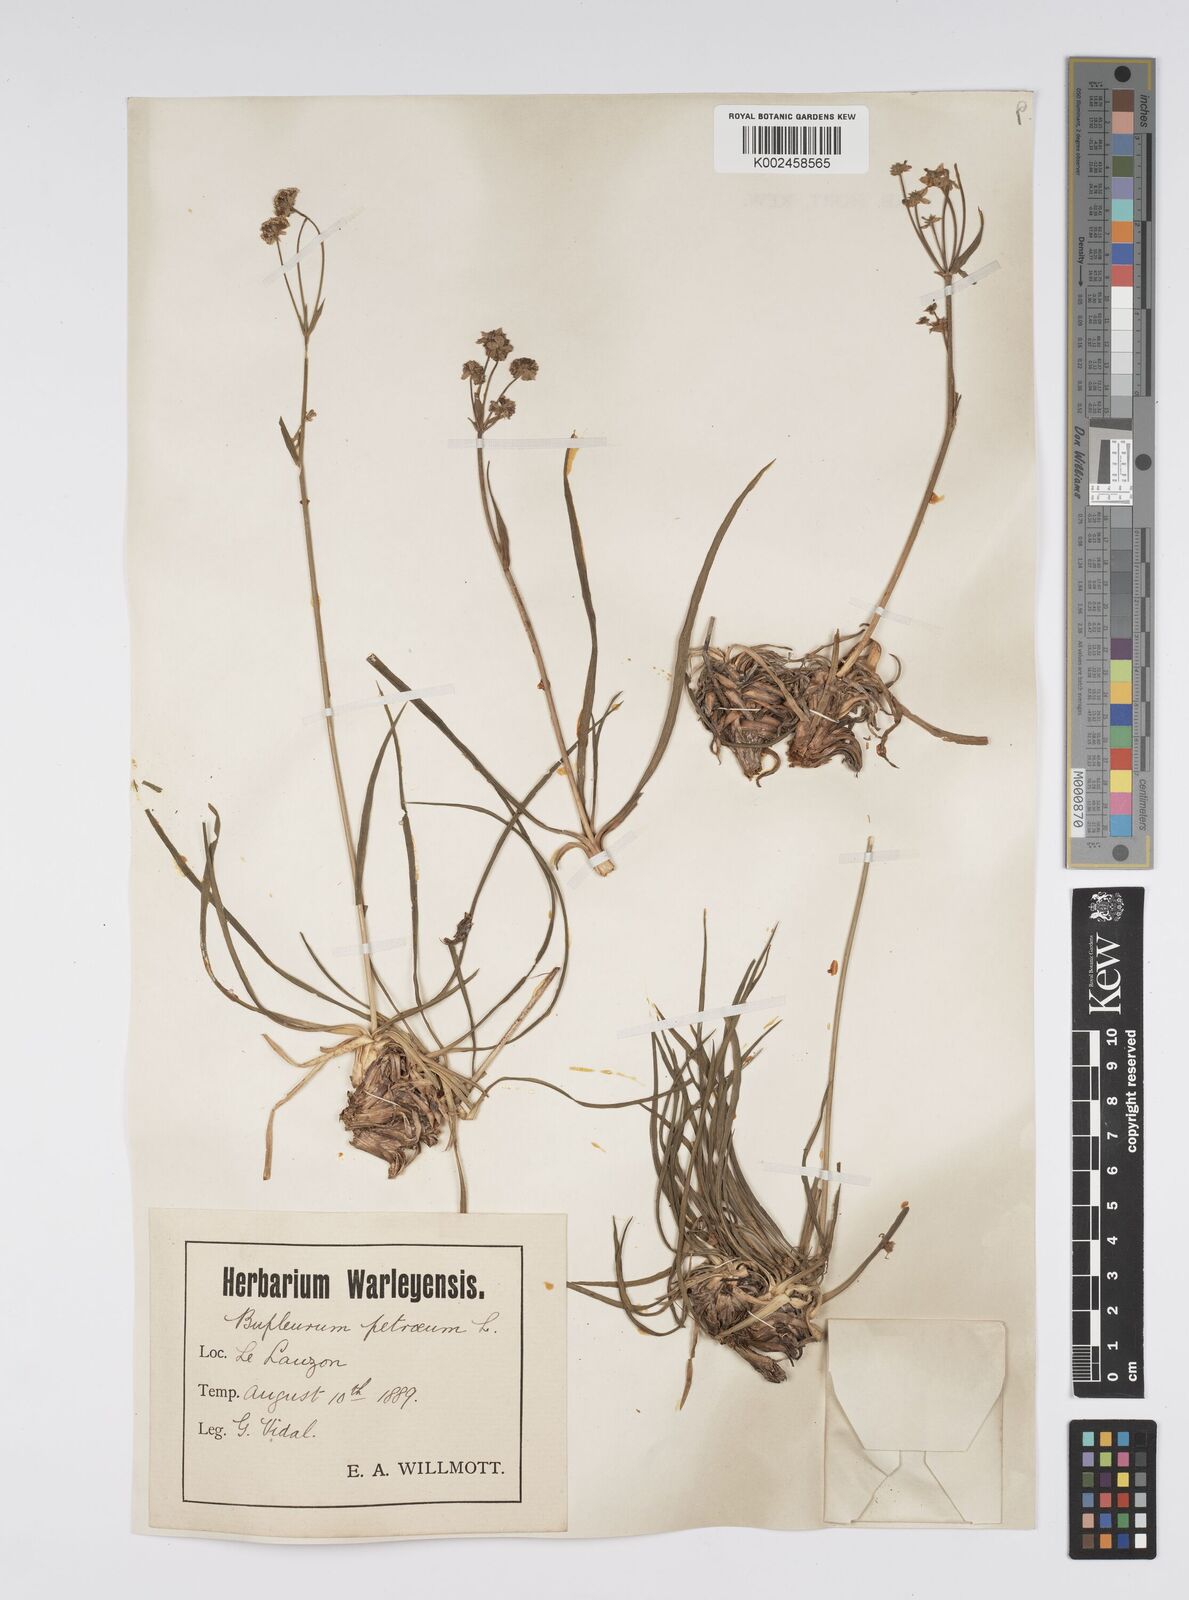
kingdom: Plantae
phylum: Tracheophyta
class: Magnoliopsida
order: Apiales
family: Apiaceae
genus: Bupleurum
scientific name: Bupleurum petraeum
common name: Rock hare's-ear
